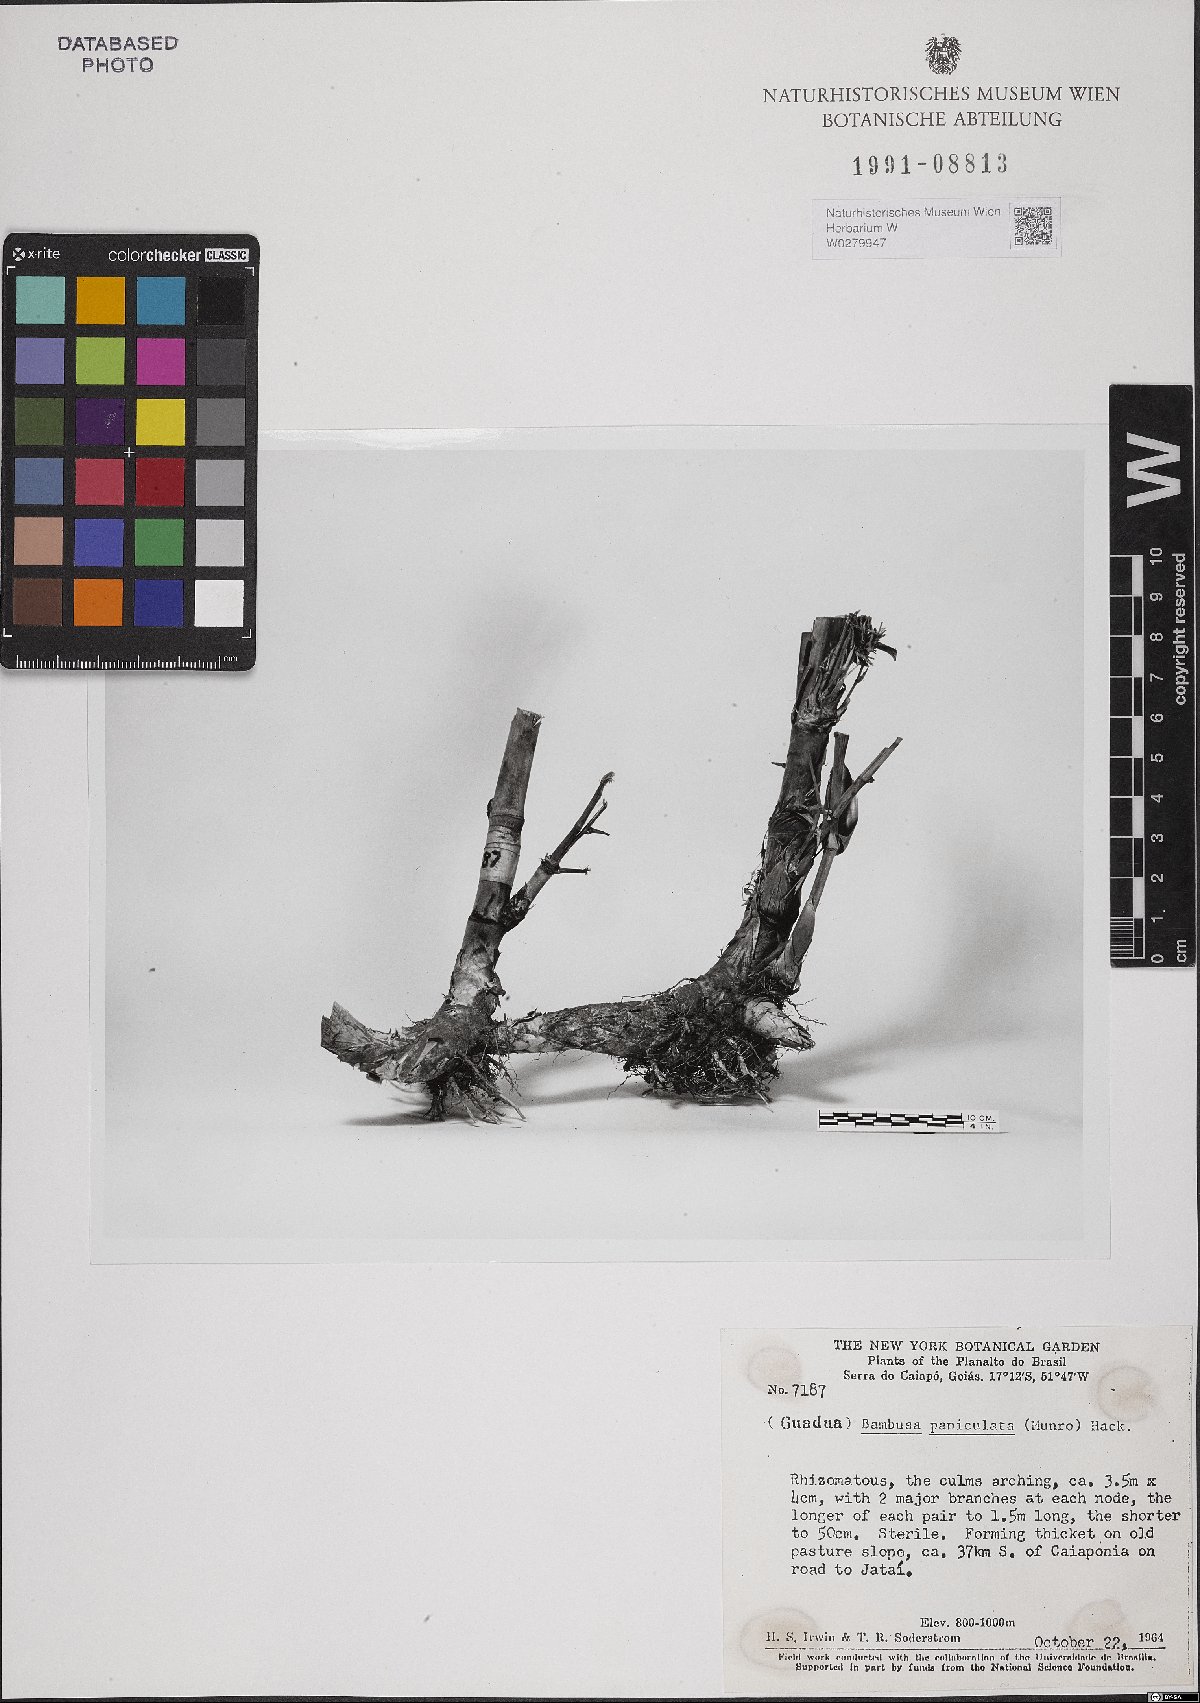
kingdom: Plantae
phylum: Tracheophyta
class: Liliopsida
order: Poales
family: Poaceae
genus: Guadua
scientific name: Guadua paniculata
